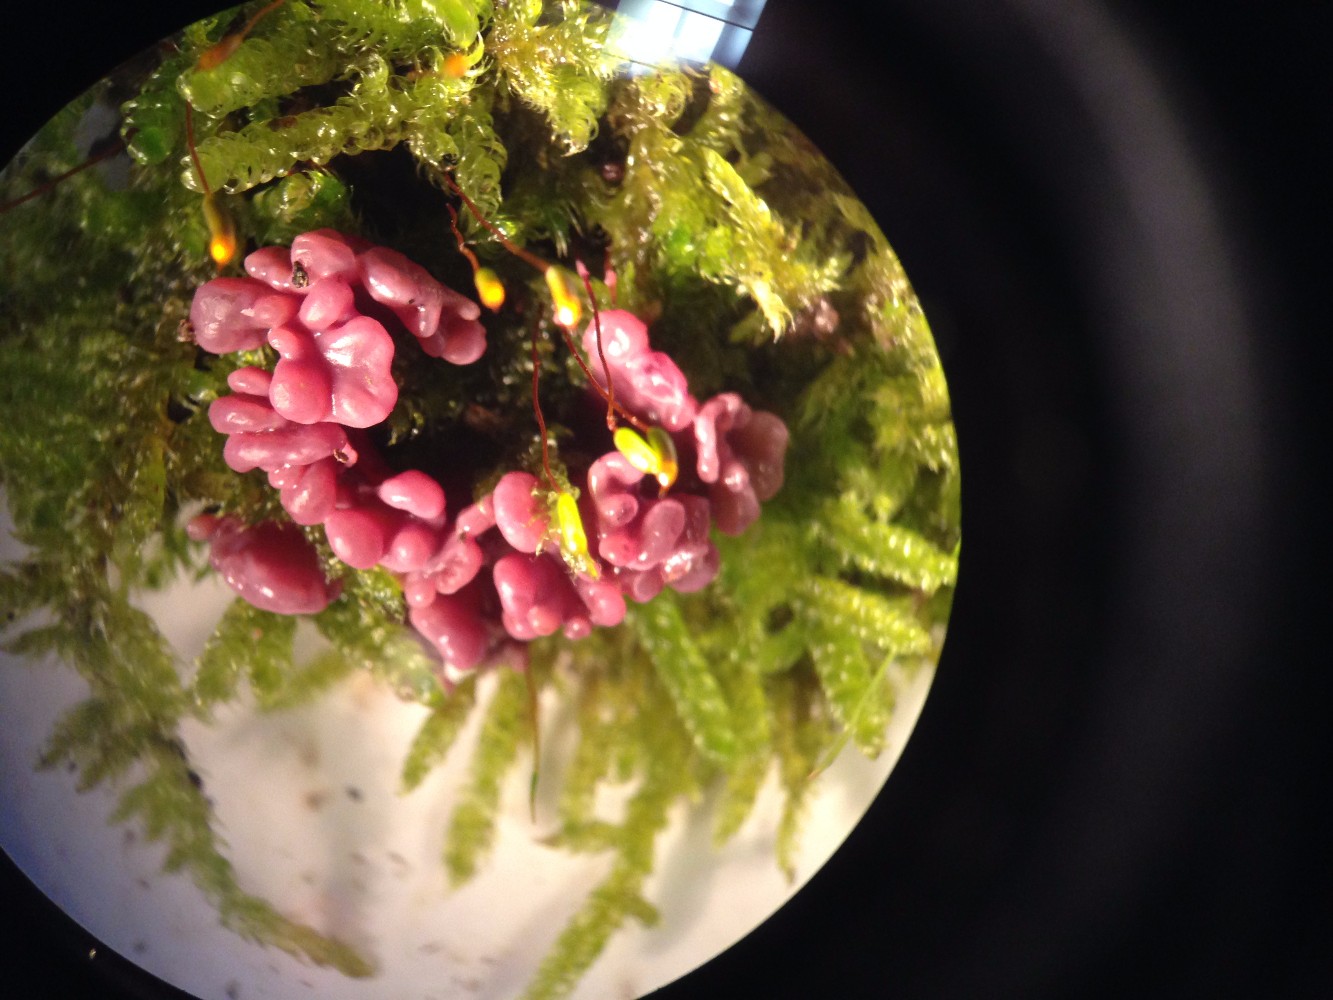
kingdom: Fungi
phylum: Ascomycota
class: Leotiomycetes
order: Helotiales
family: Gelatinodiscaceae
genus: Ascocoryne
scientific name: Ascocoryne sarcoides
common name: rødlilla sejskive
